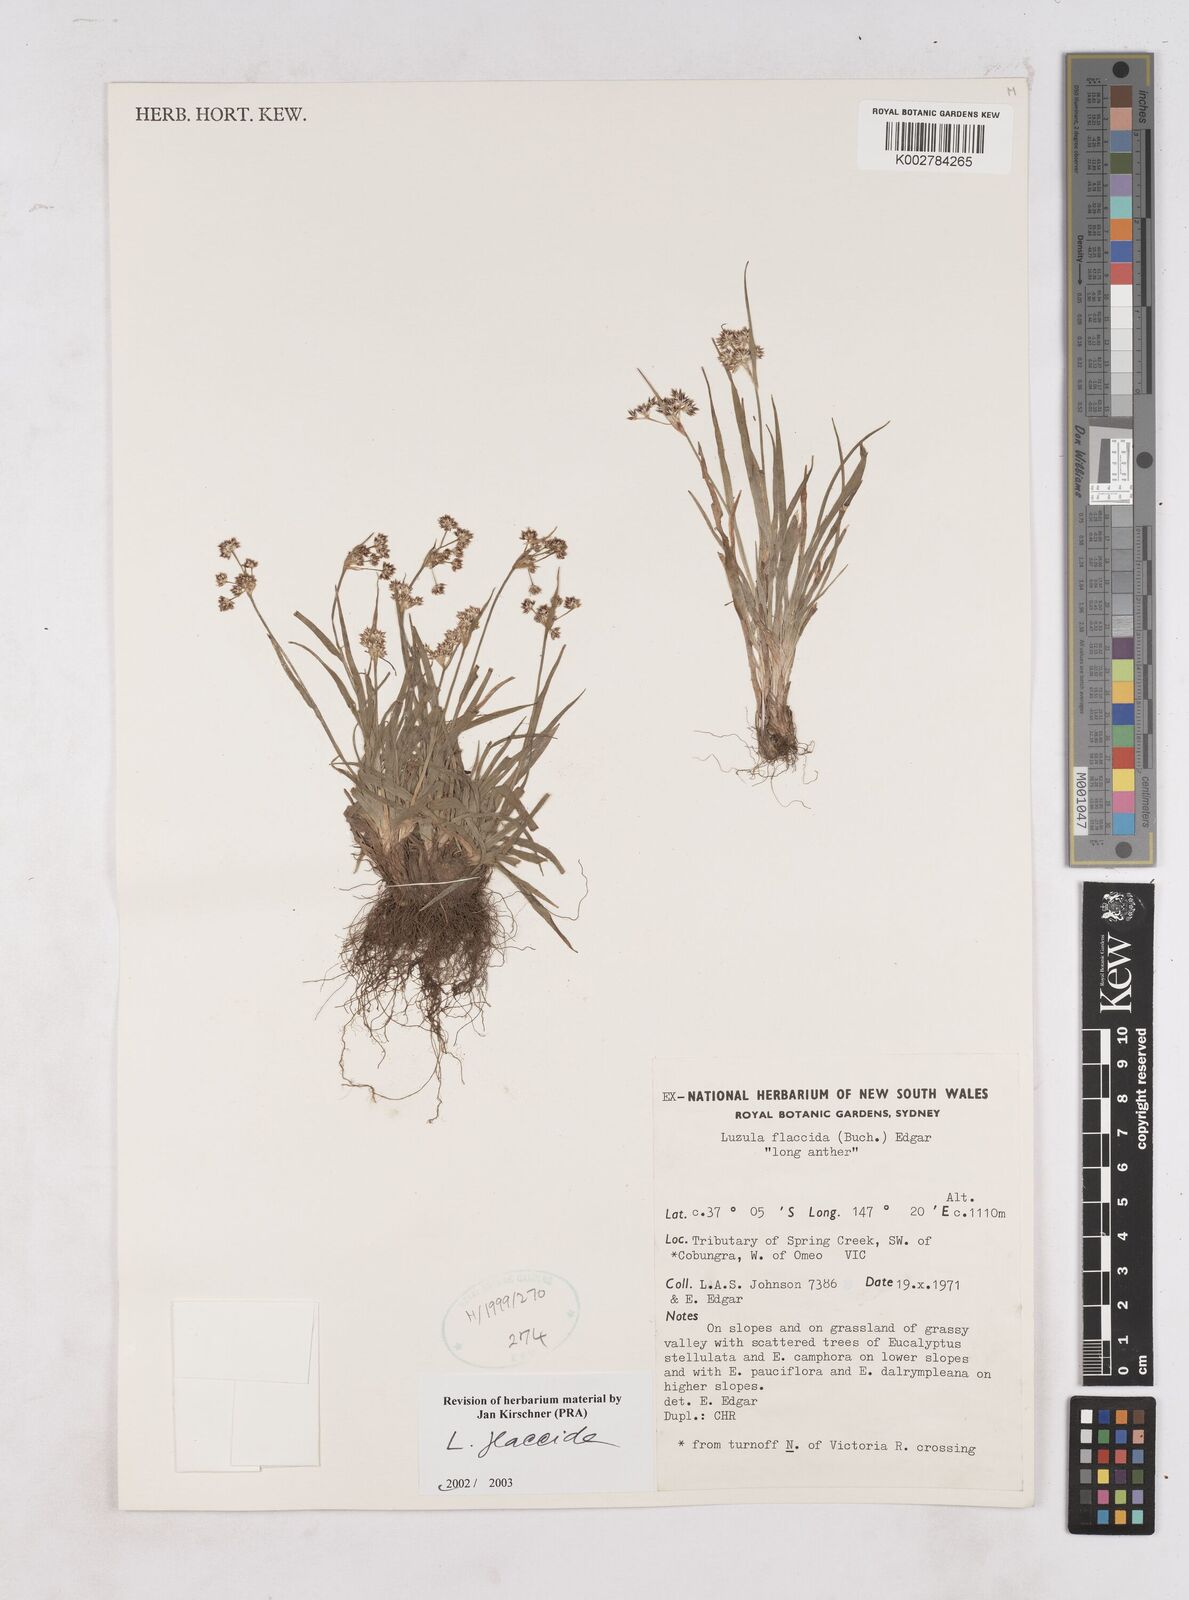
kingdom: Plantae
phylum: Tracheophyta
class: Liliopsida
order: Poales
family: Juncaceae
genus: Luzula
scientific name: Luzula flaccida
